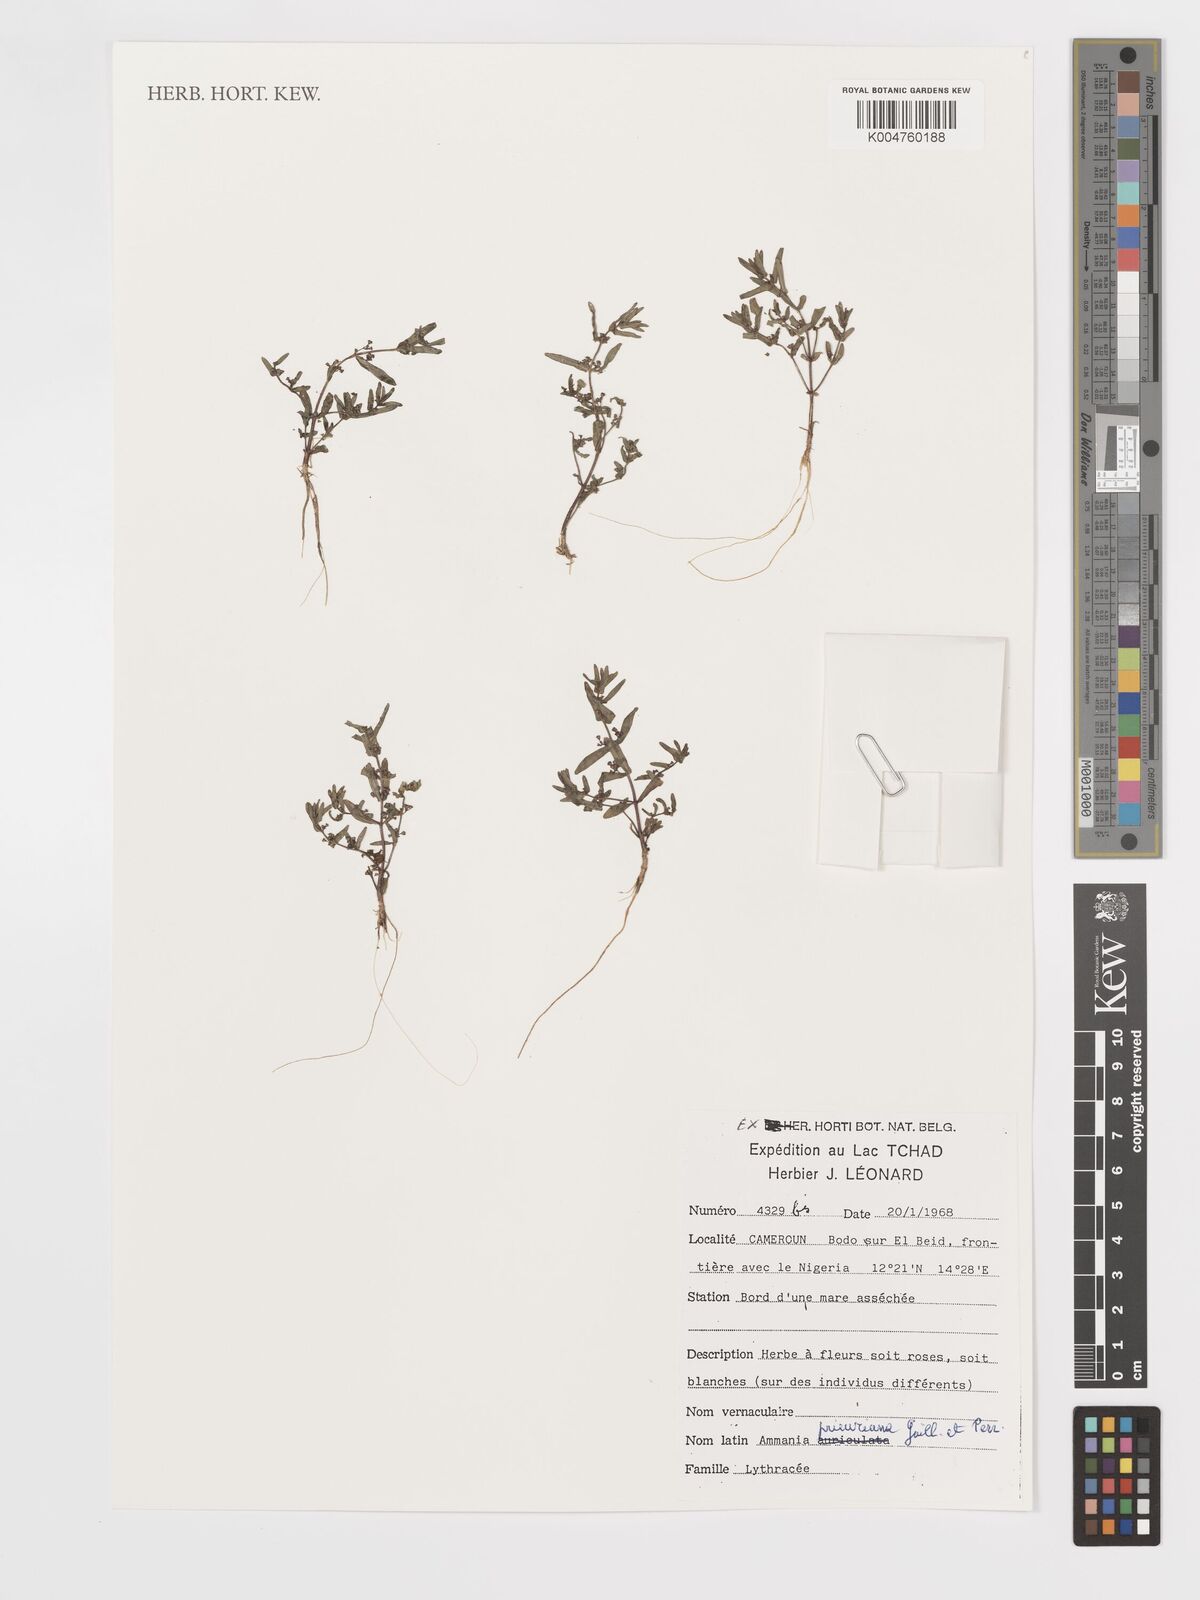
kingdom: Plantae
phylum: Tracheophyta
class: Magnoliopsida
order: Myrtales
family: Lythraceae
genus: Ammannia
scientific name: Ammannia prieuriana
